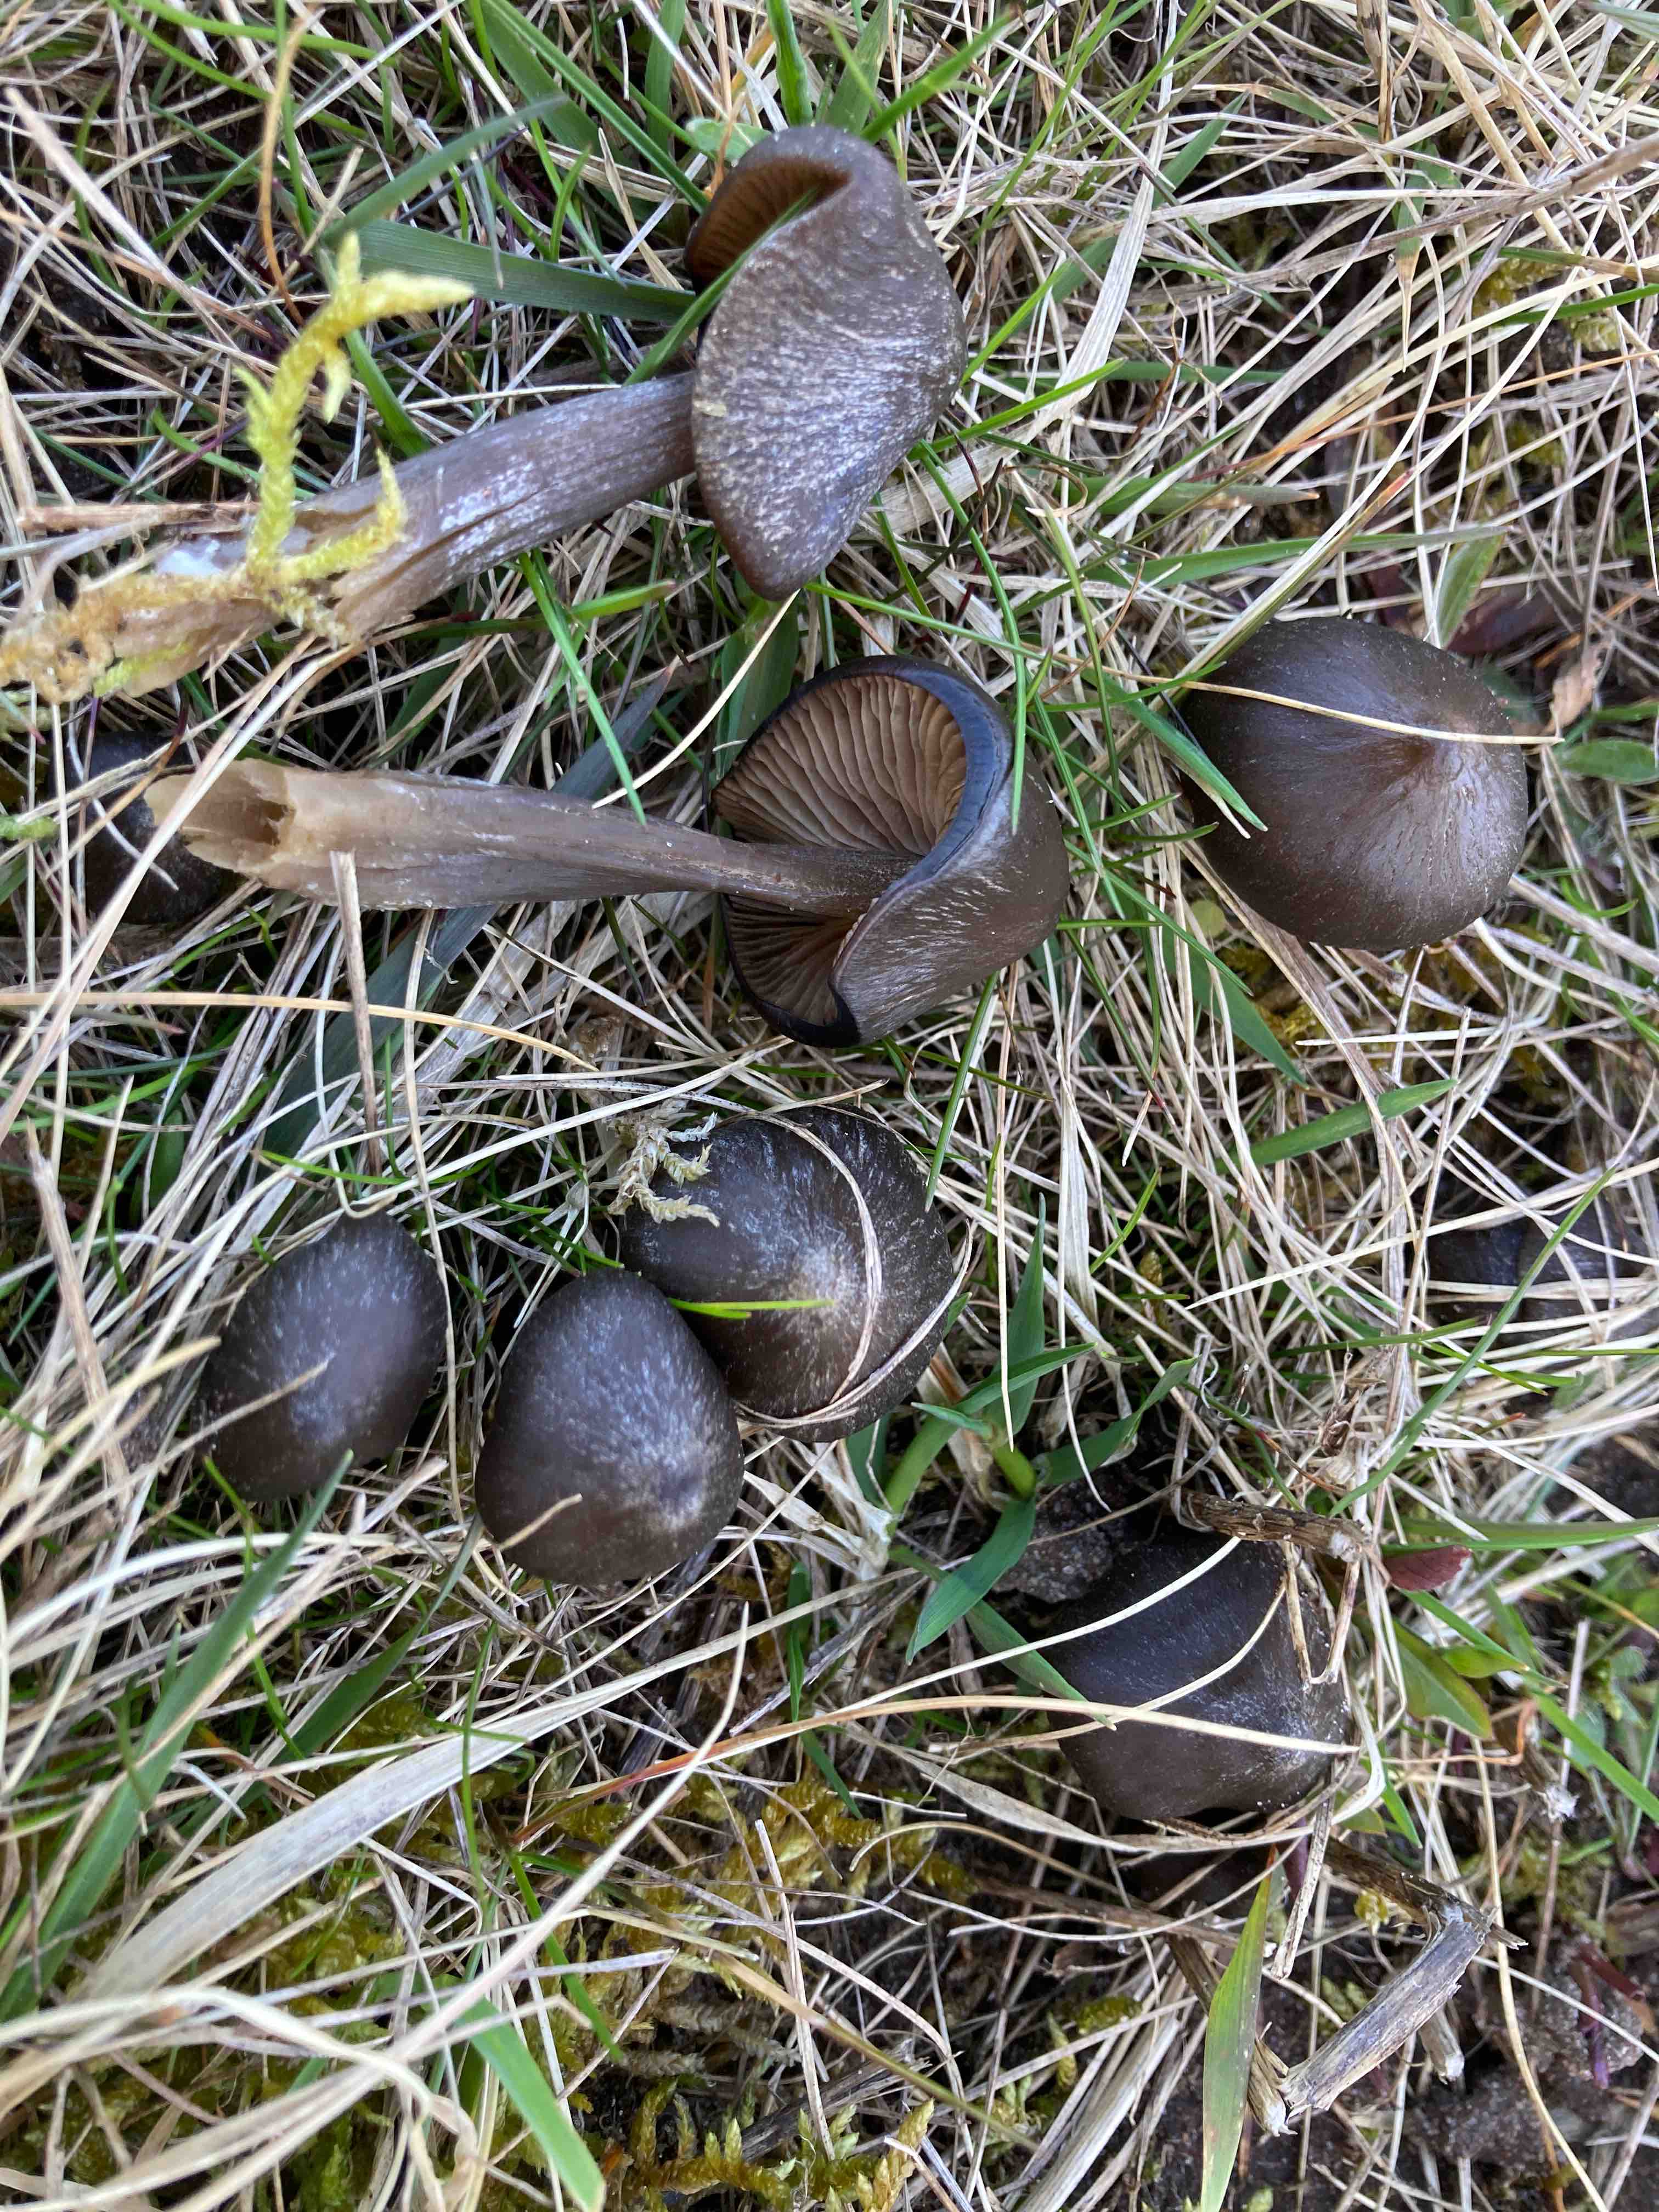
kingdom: Fungi
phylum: Basidiomycota
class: Agaricomycetes
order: Agaricales
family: Entolomataceae
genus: Entoloma
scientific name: Entoloma vernum
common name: vår-rødblad
